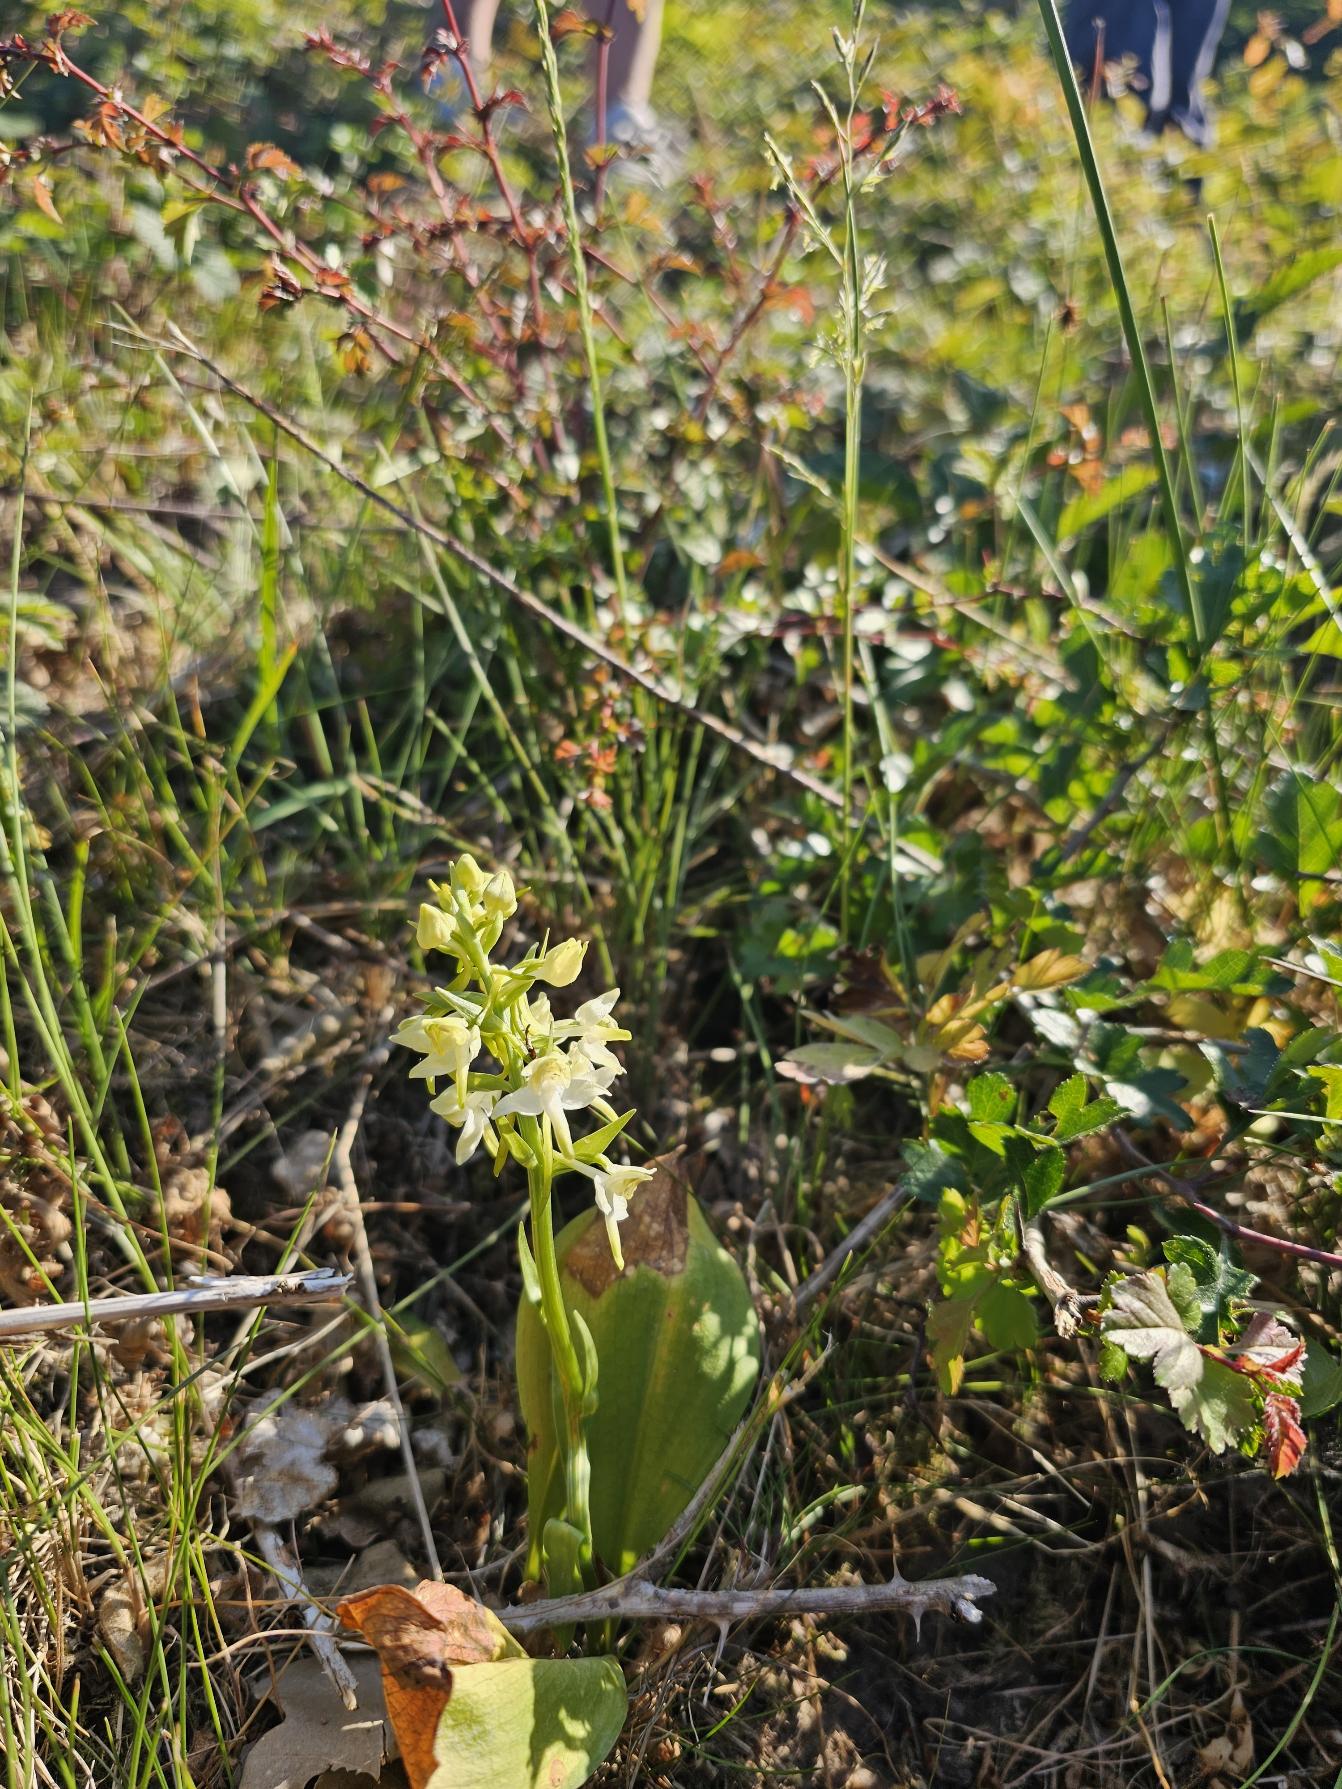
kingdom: Plantae
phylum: Tracheophyta
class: Liliopsida
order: Asparagales
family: Orchidaceae
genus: Platanthera
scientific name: Platanthera chlorantha
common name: Skov-gøgelilje
